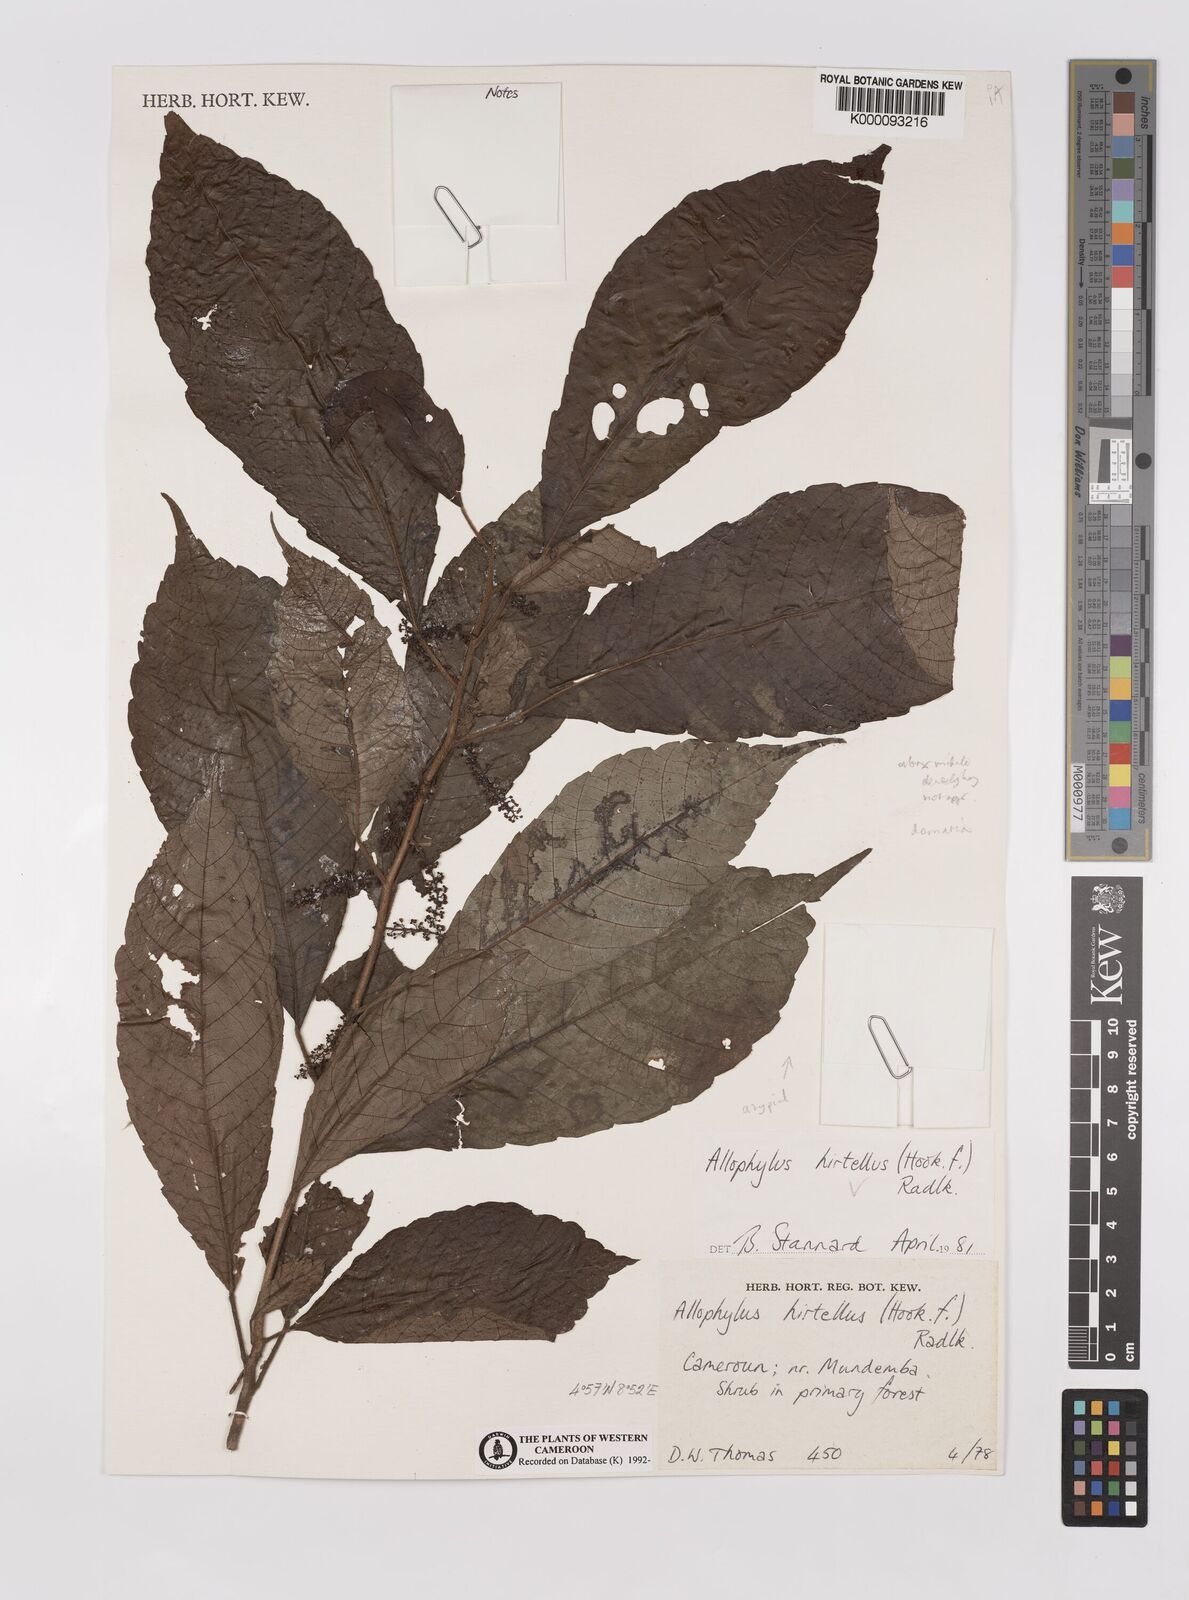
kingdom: Plantae
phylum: Tracheophyta
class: Magnoliopsida
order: Sapindales
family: Sapindaceae
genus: Allophylus
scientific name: Allophylus hirtellus
